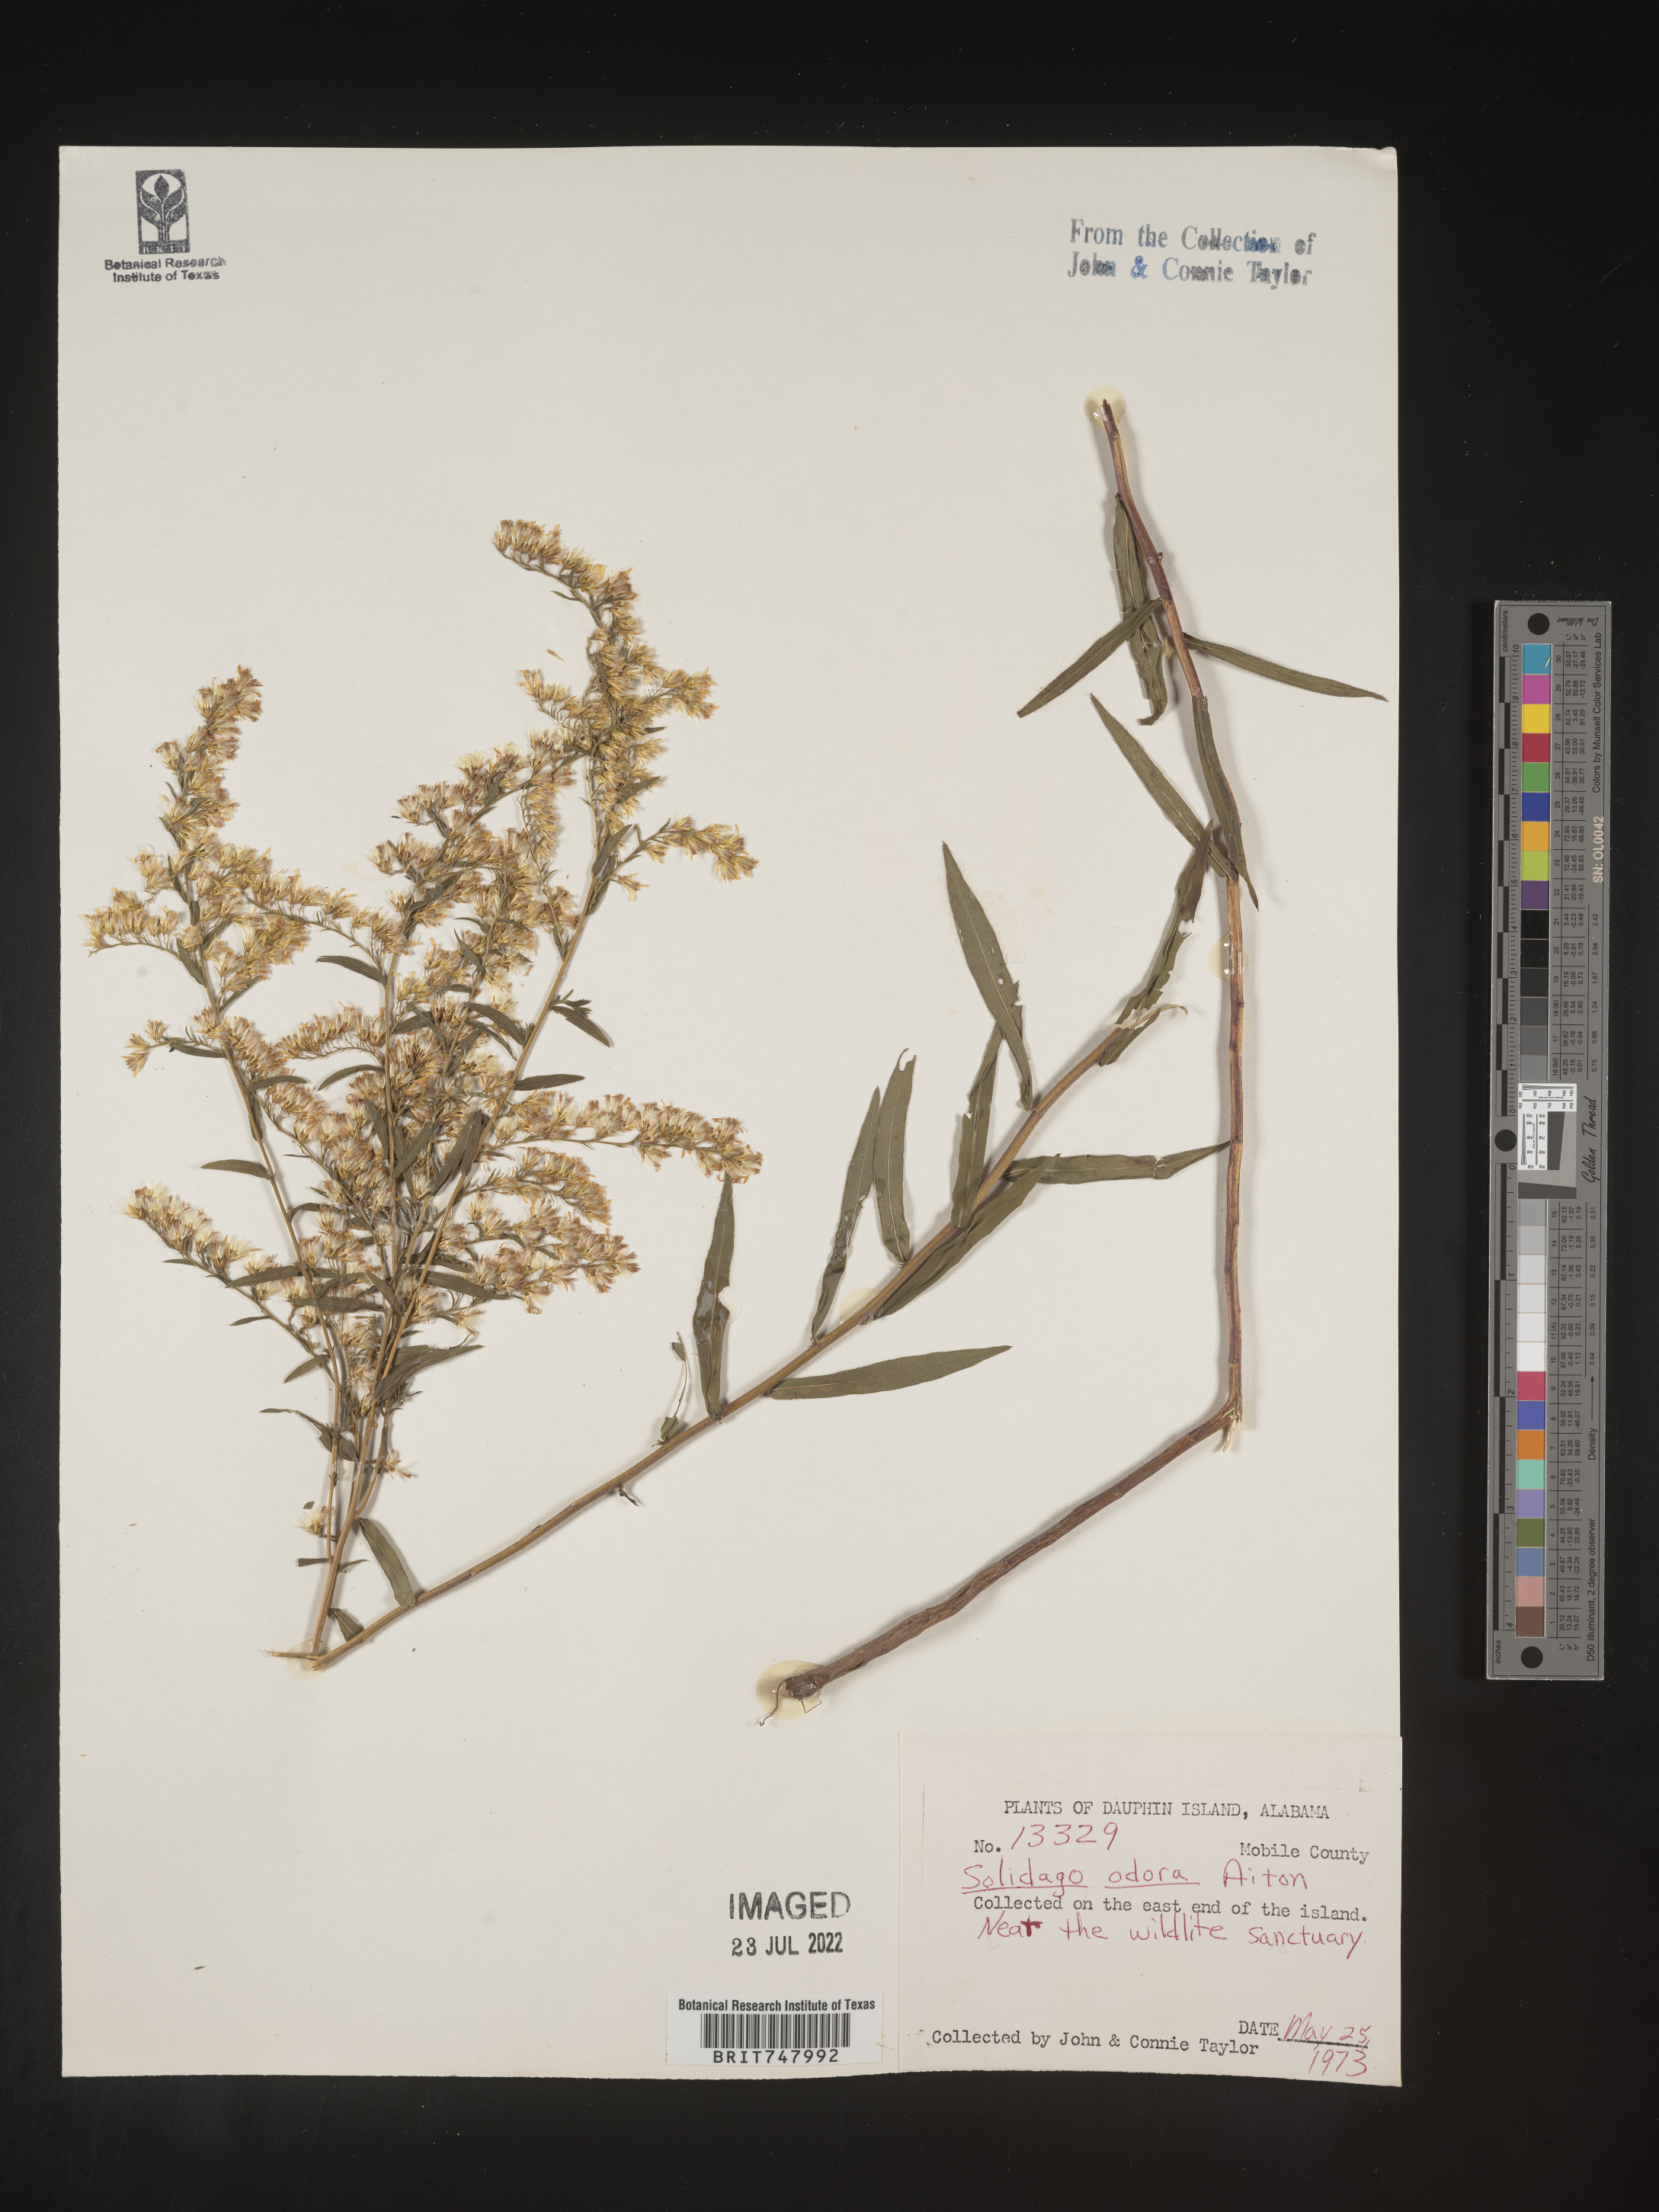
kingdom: Plantae
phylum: Tracheophyta
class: Magnoliopsida
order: Asterales
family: Asteraceae
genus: Solidago
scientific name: Solidago odora
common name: Anise-scented goldenrod
